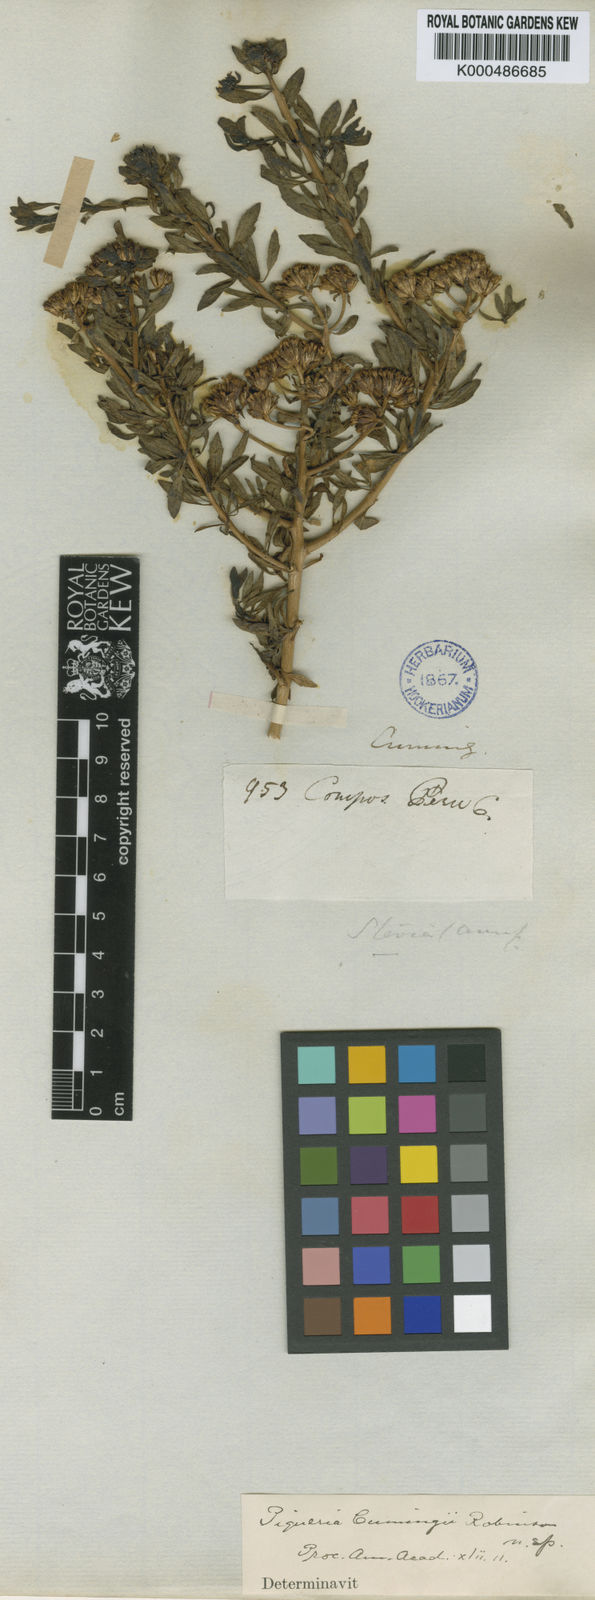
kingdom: Plantae
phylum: Tracheophyta
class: Magnoliopsida
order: Asterales
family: Asteraceae
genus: Ophryosporus
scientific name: Ophryosporus anomalus
